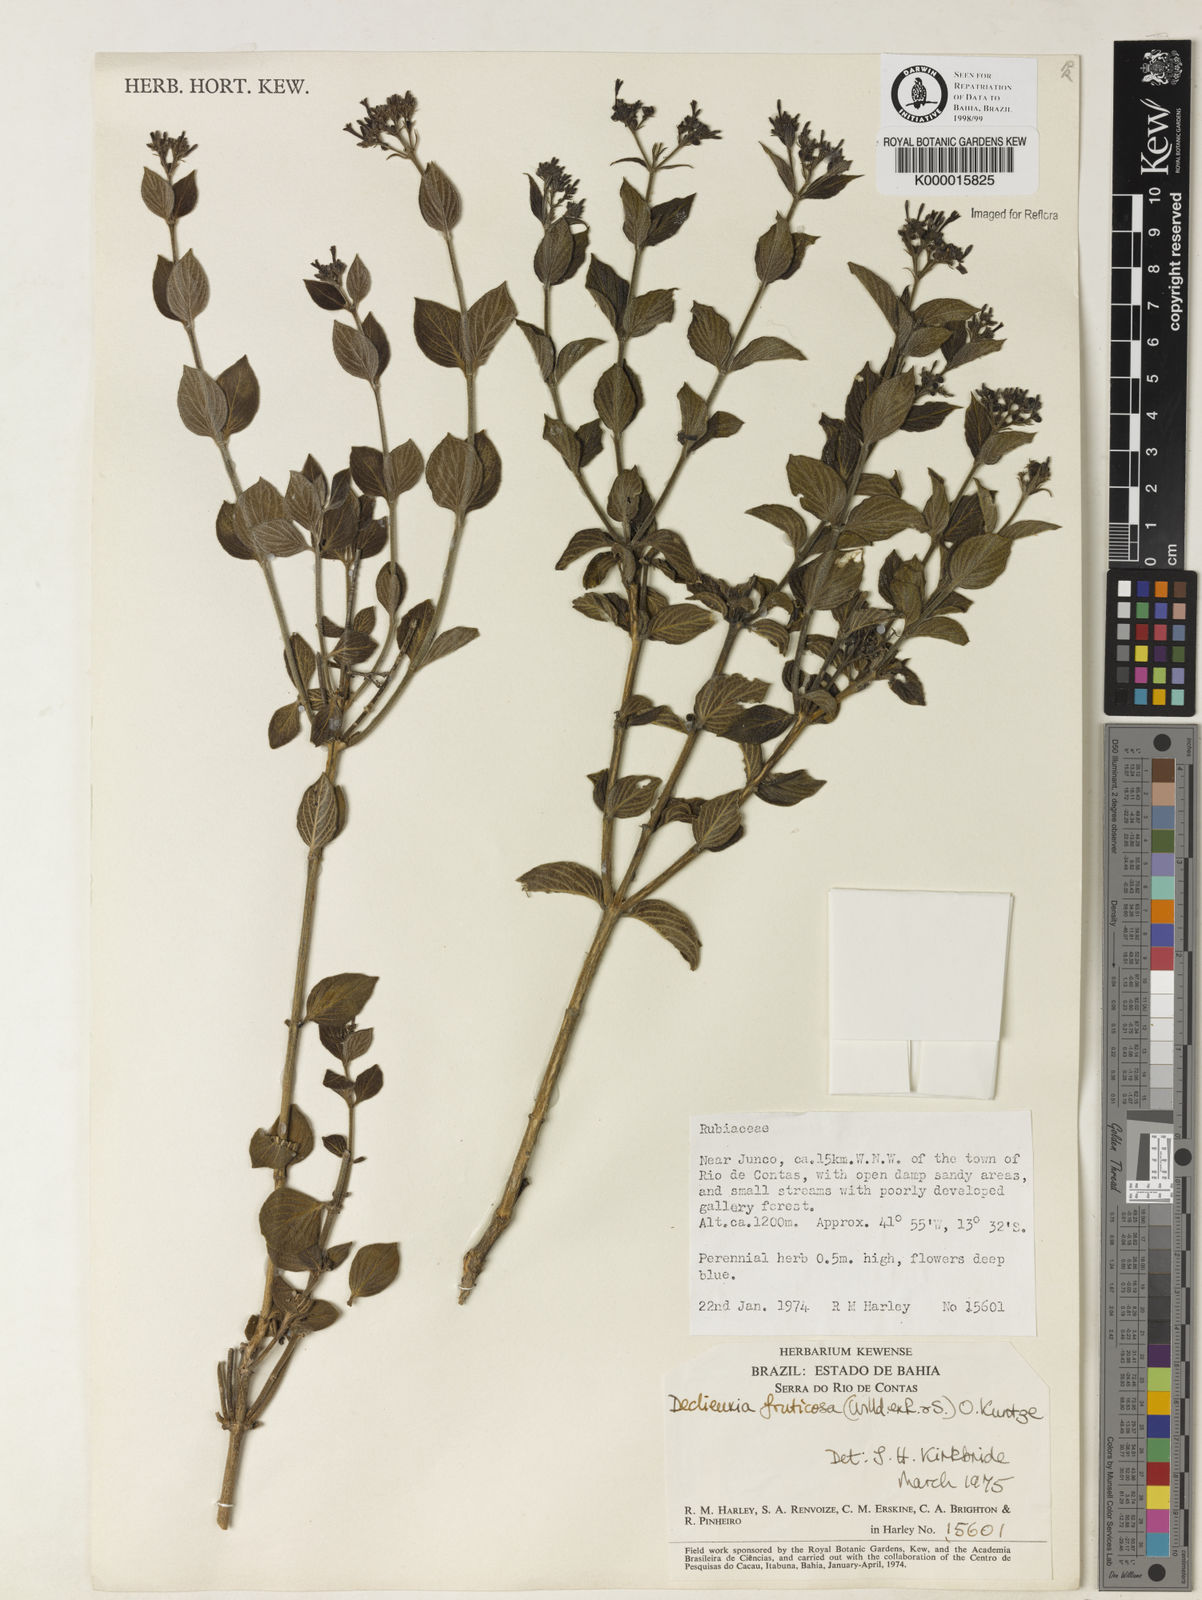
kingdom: Plantae
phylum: Tracheophyta
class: Magnoliopsida
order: Gentianales
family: Rubiaceae
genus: Declieuxia
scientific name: Declieuxia fruticosa
